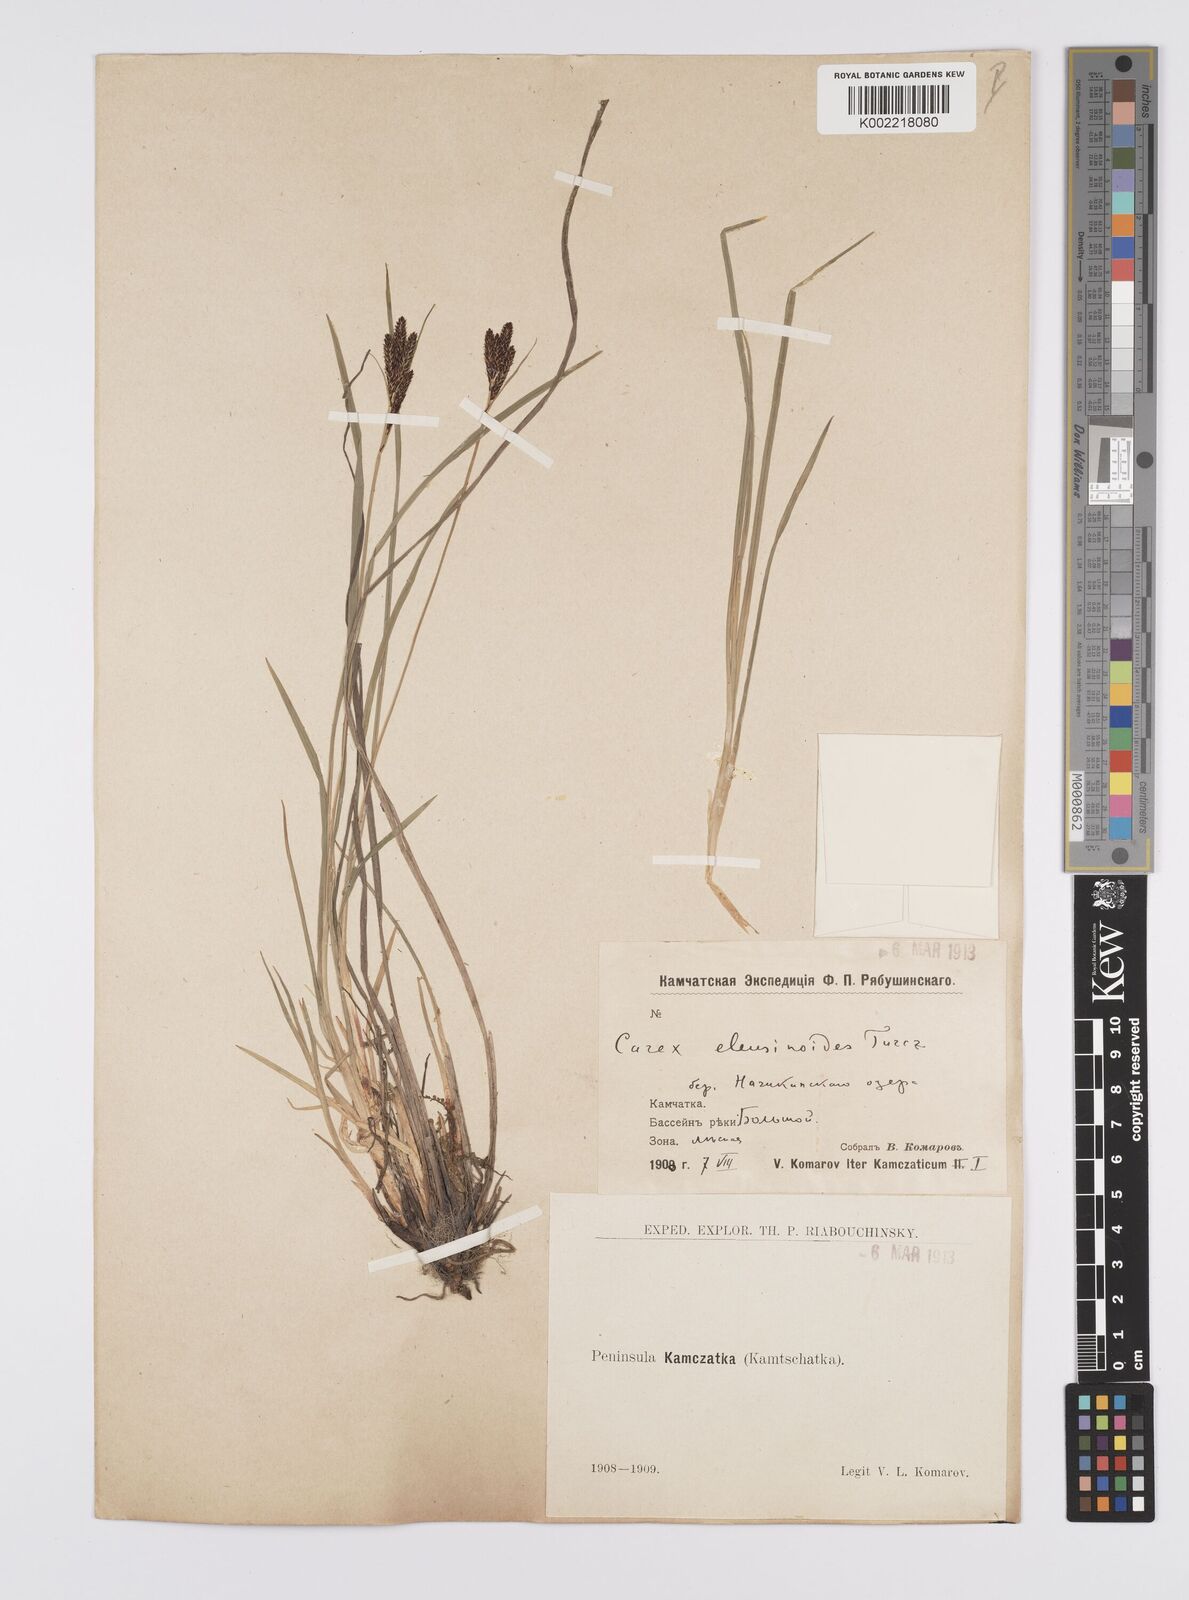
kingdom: Plantae
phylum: Tracheophyta
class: Liliopsida
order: Poales
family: Cyperaceae
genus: Carex
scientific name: Carex eleusinoides
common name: Goosegrass sedge
